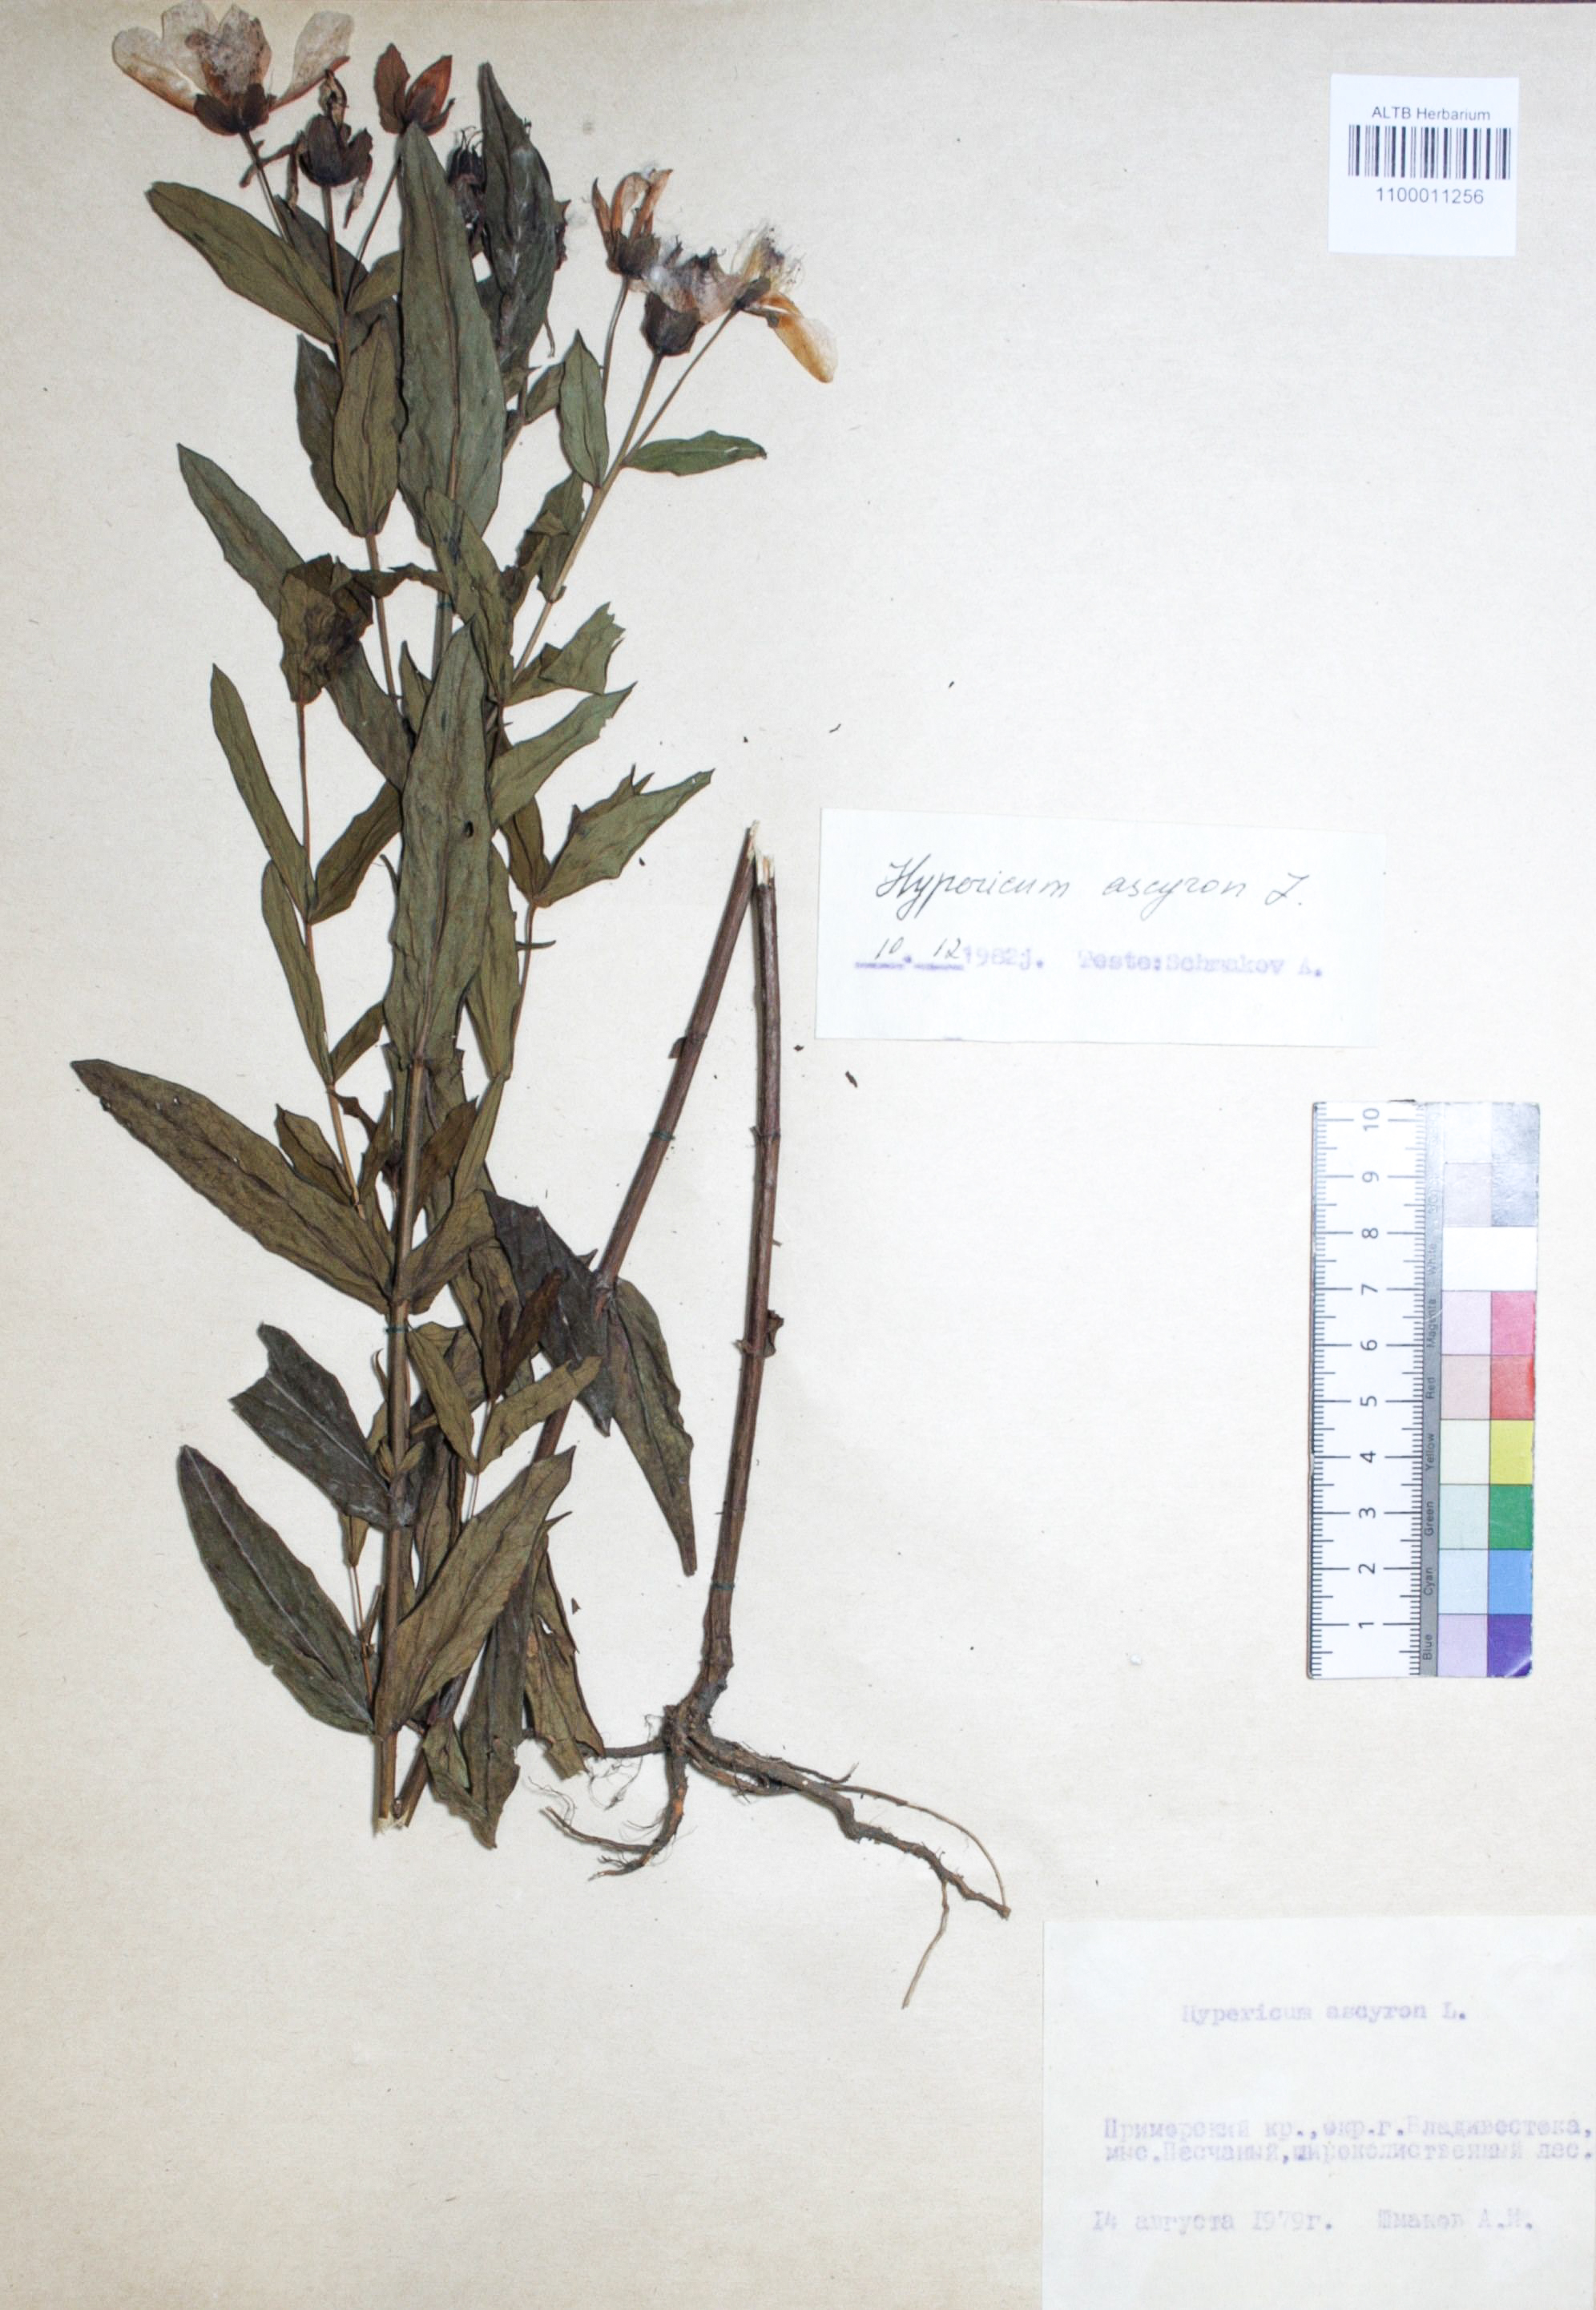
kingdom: Plantae
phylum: Tracheophyta
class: Magnoliopsida
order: Malpighiales
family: Hypericaceae
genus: Hypericum
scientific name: Hypericum ascyron
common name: Giant st. john's-wort
